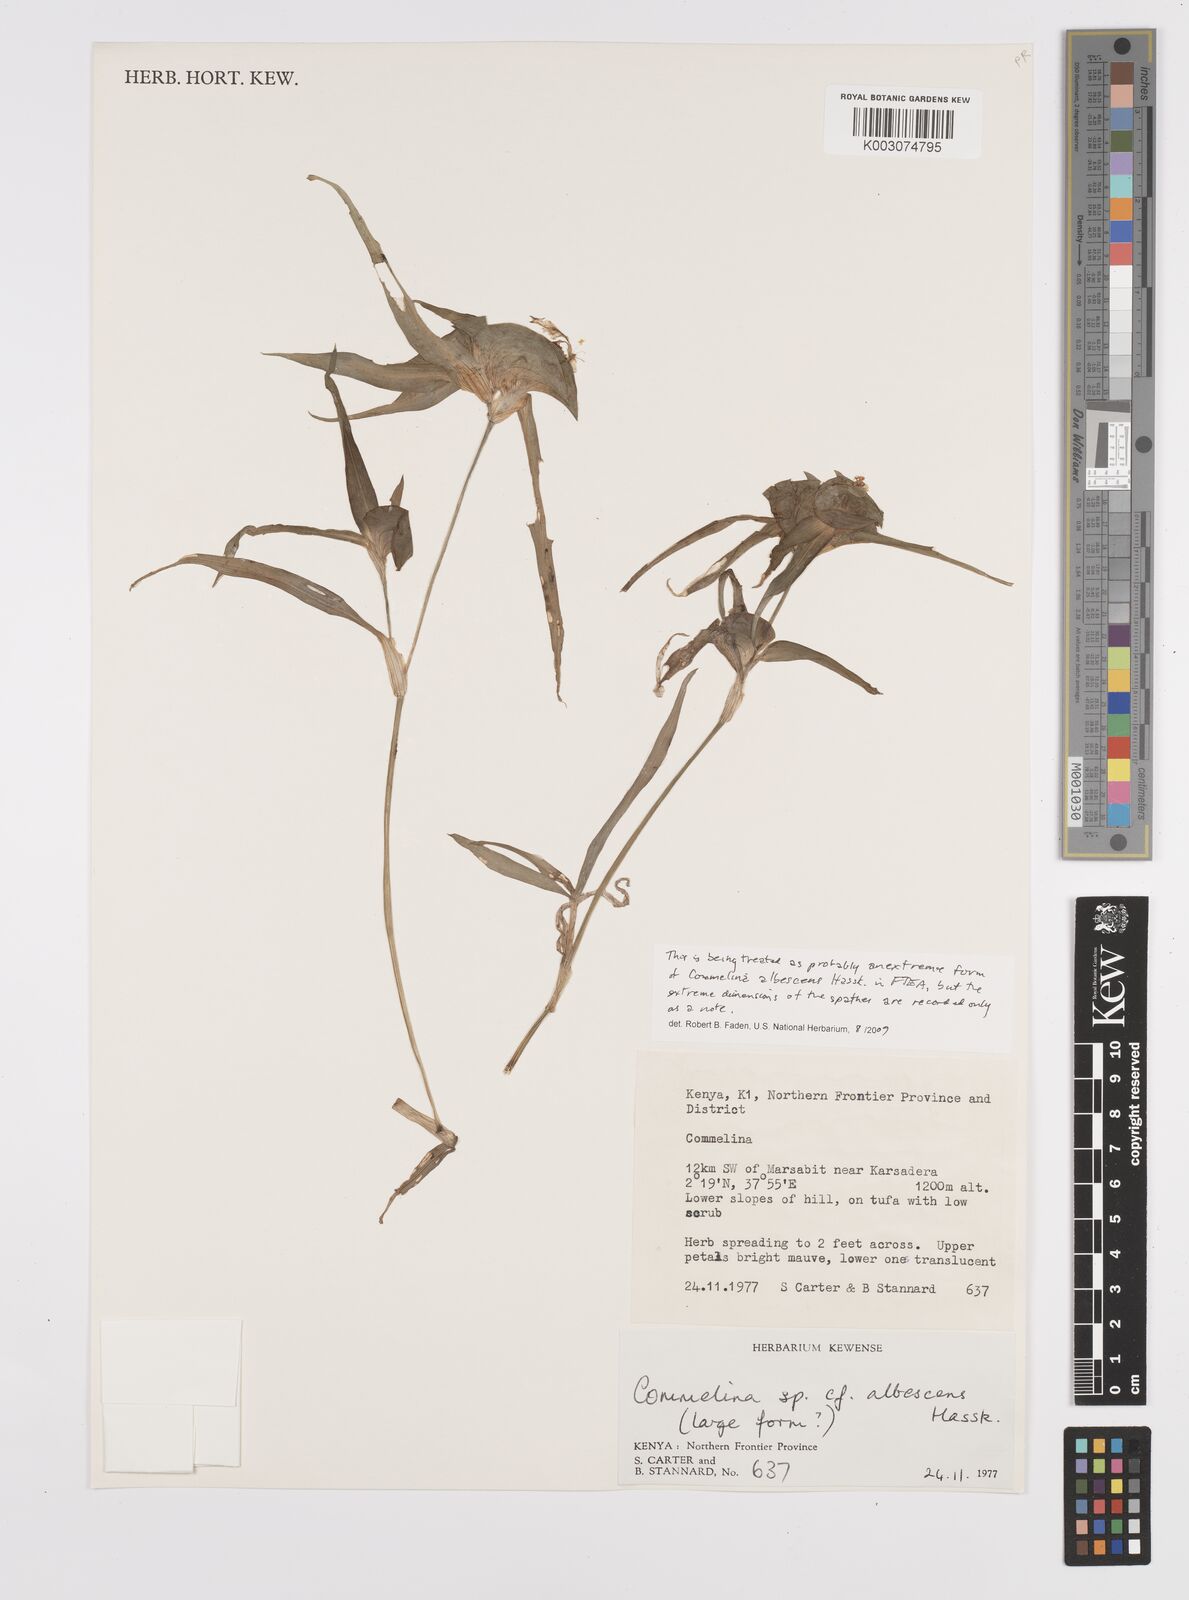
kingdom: Plantae
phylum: Tracheophyta
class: Liliopsida
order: Commelinales
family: Commelinaceae
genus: Commelina
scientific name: Commelina albescens
